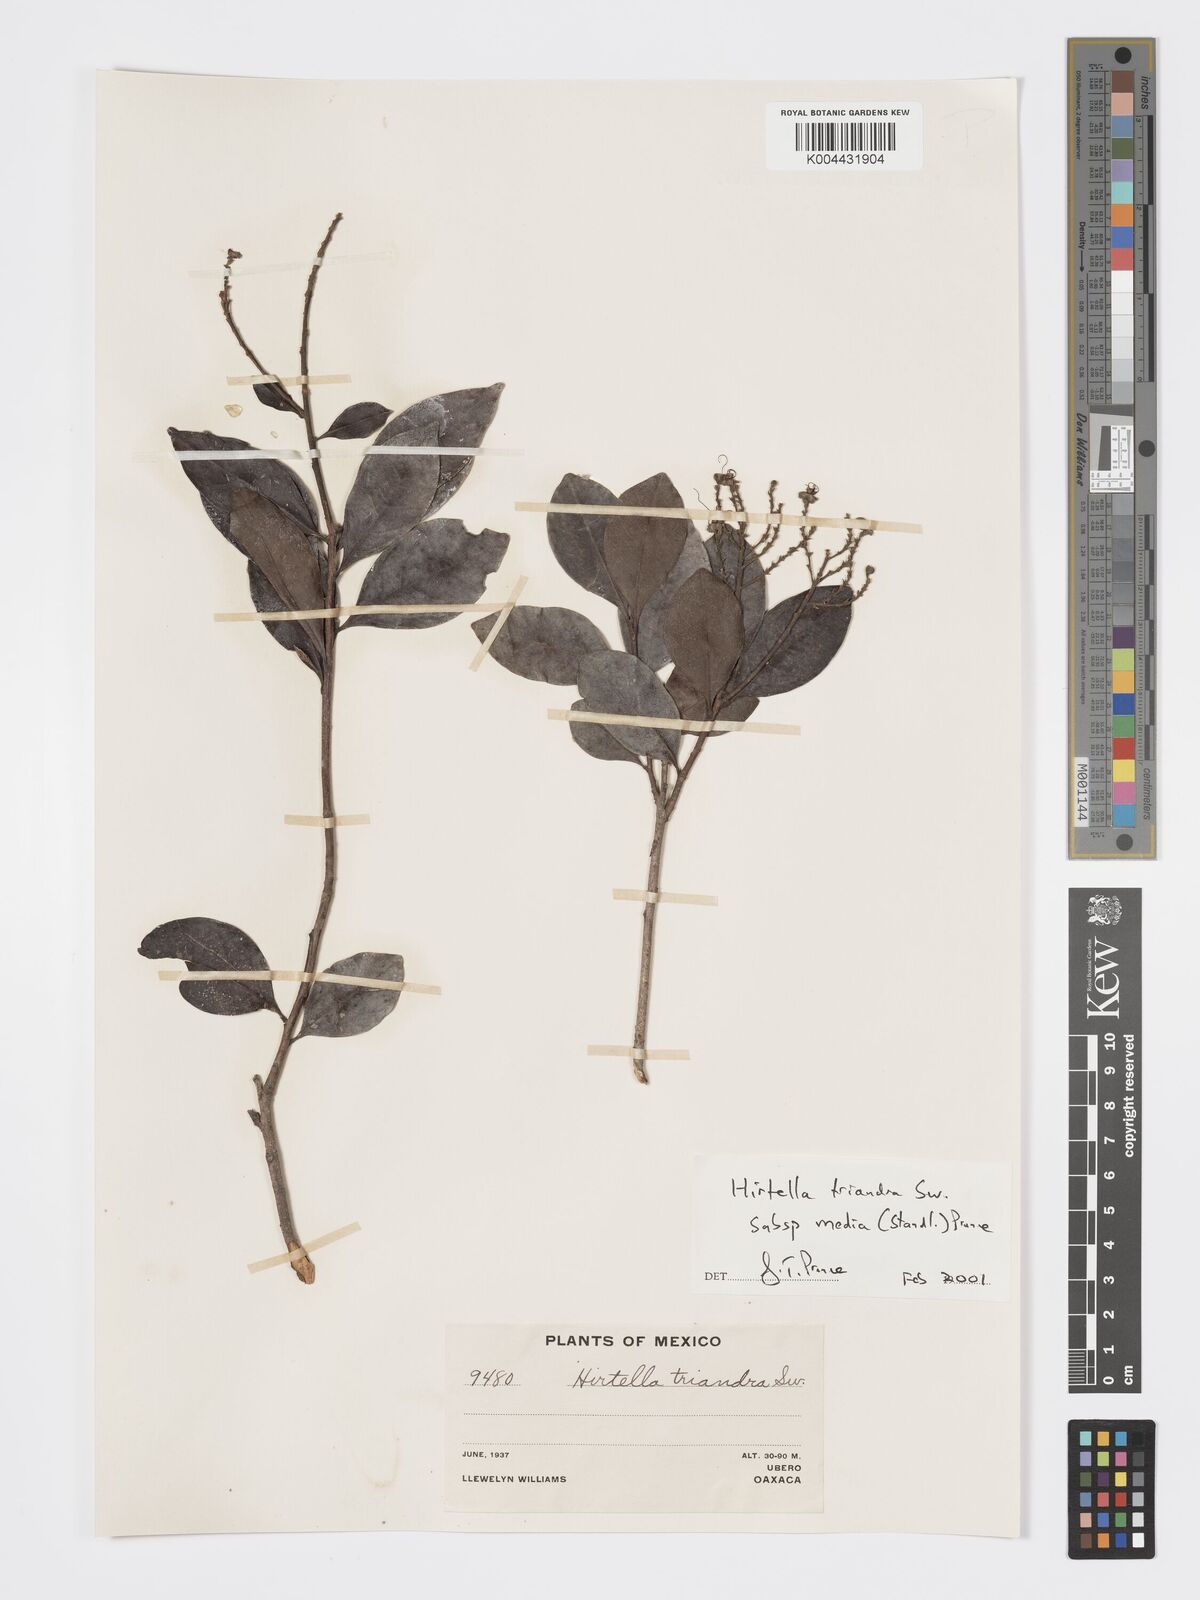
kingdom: Plantae
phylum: Tracheophyta
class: Magnoliopsida
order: Malpighiales
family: Chrysobalanaceae
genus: Hirtella
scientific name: Hirtella triandra
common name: Hairy plum
